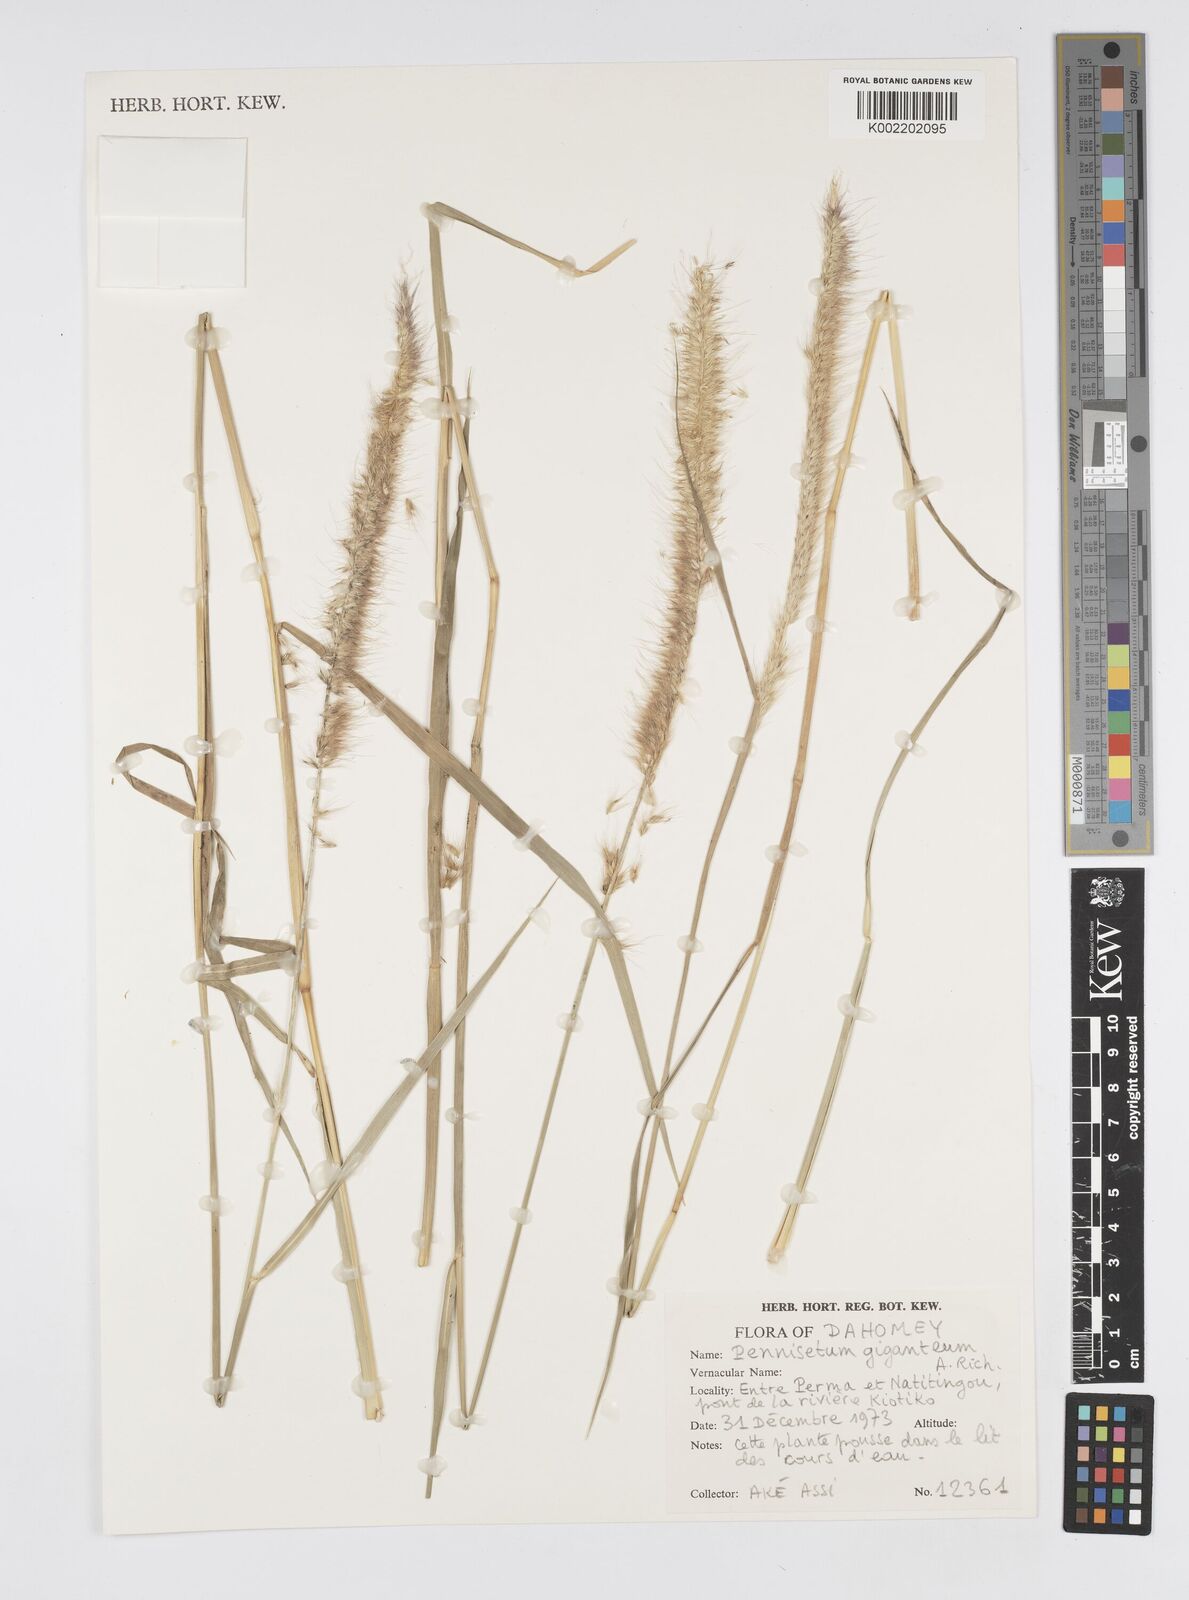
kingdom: Plantae
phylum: Tracheophyta
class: Liliopsida
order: Poales
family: Poaceae
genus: Cenchrus
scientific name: Cenchrus caudatus
